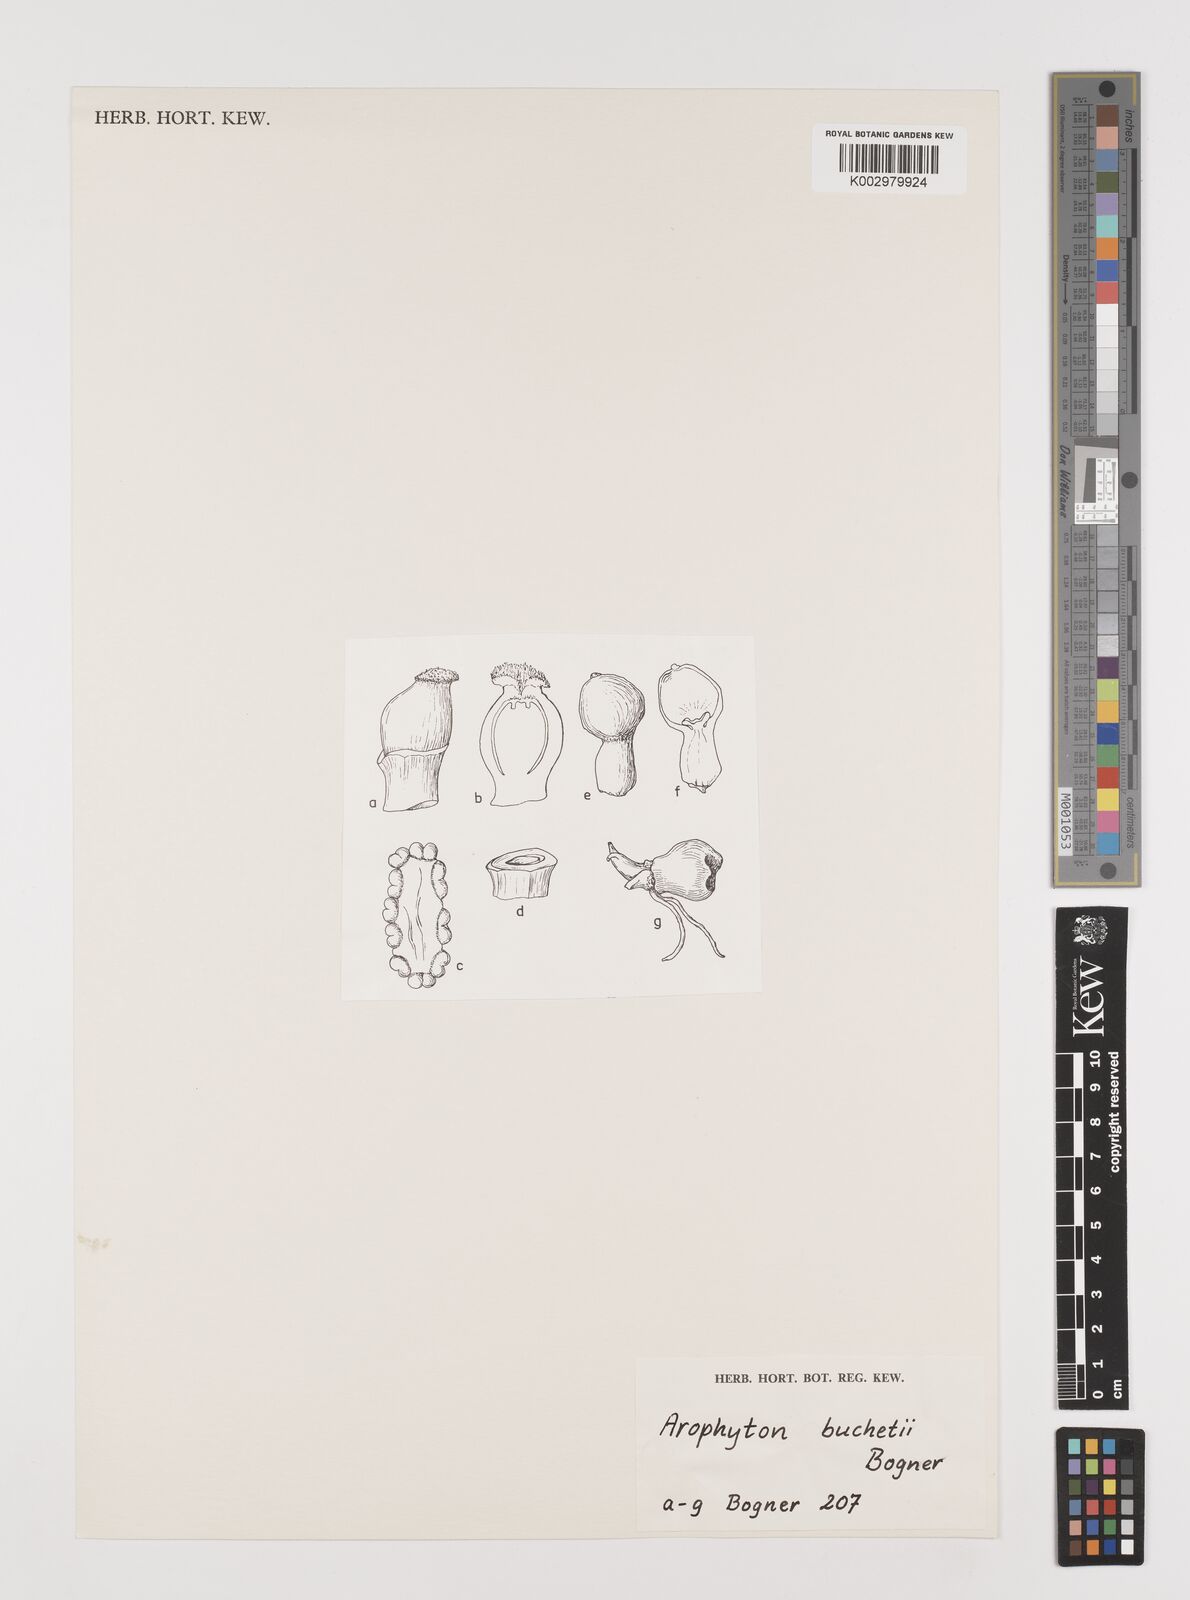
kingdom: Plantae
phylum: Tracheophyta
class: Liliopsida
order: Alismatales
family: Araceae
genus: Arophyton
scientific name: Arophyton buchetii
